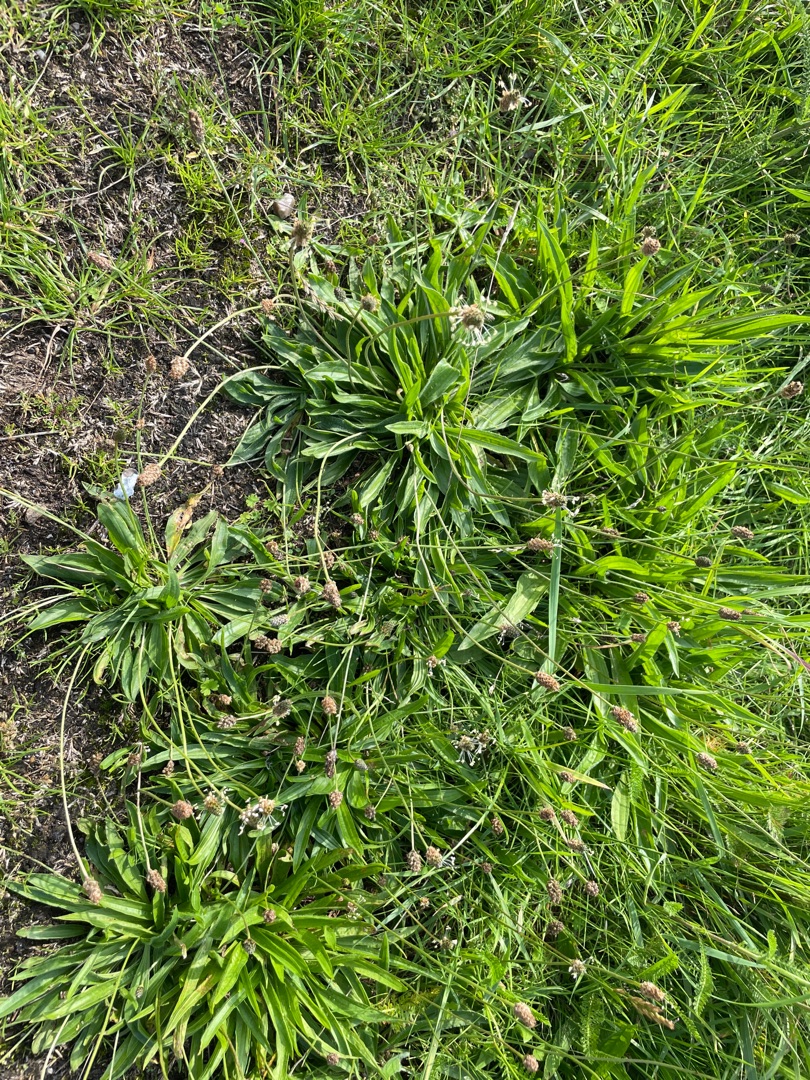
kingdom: Plantae
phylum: Tracheophyta
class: Magnoliopsida
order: Lamiales
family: Plantaginaceae
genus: Plantago
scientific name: Plantago lanceolata
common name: Lancet-vejbred
